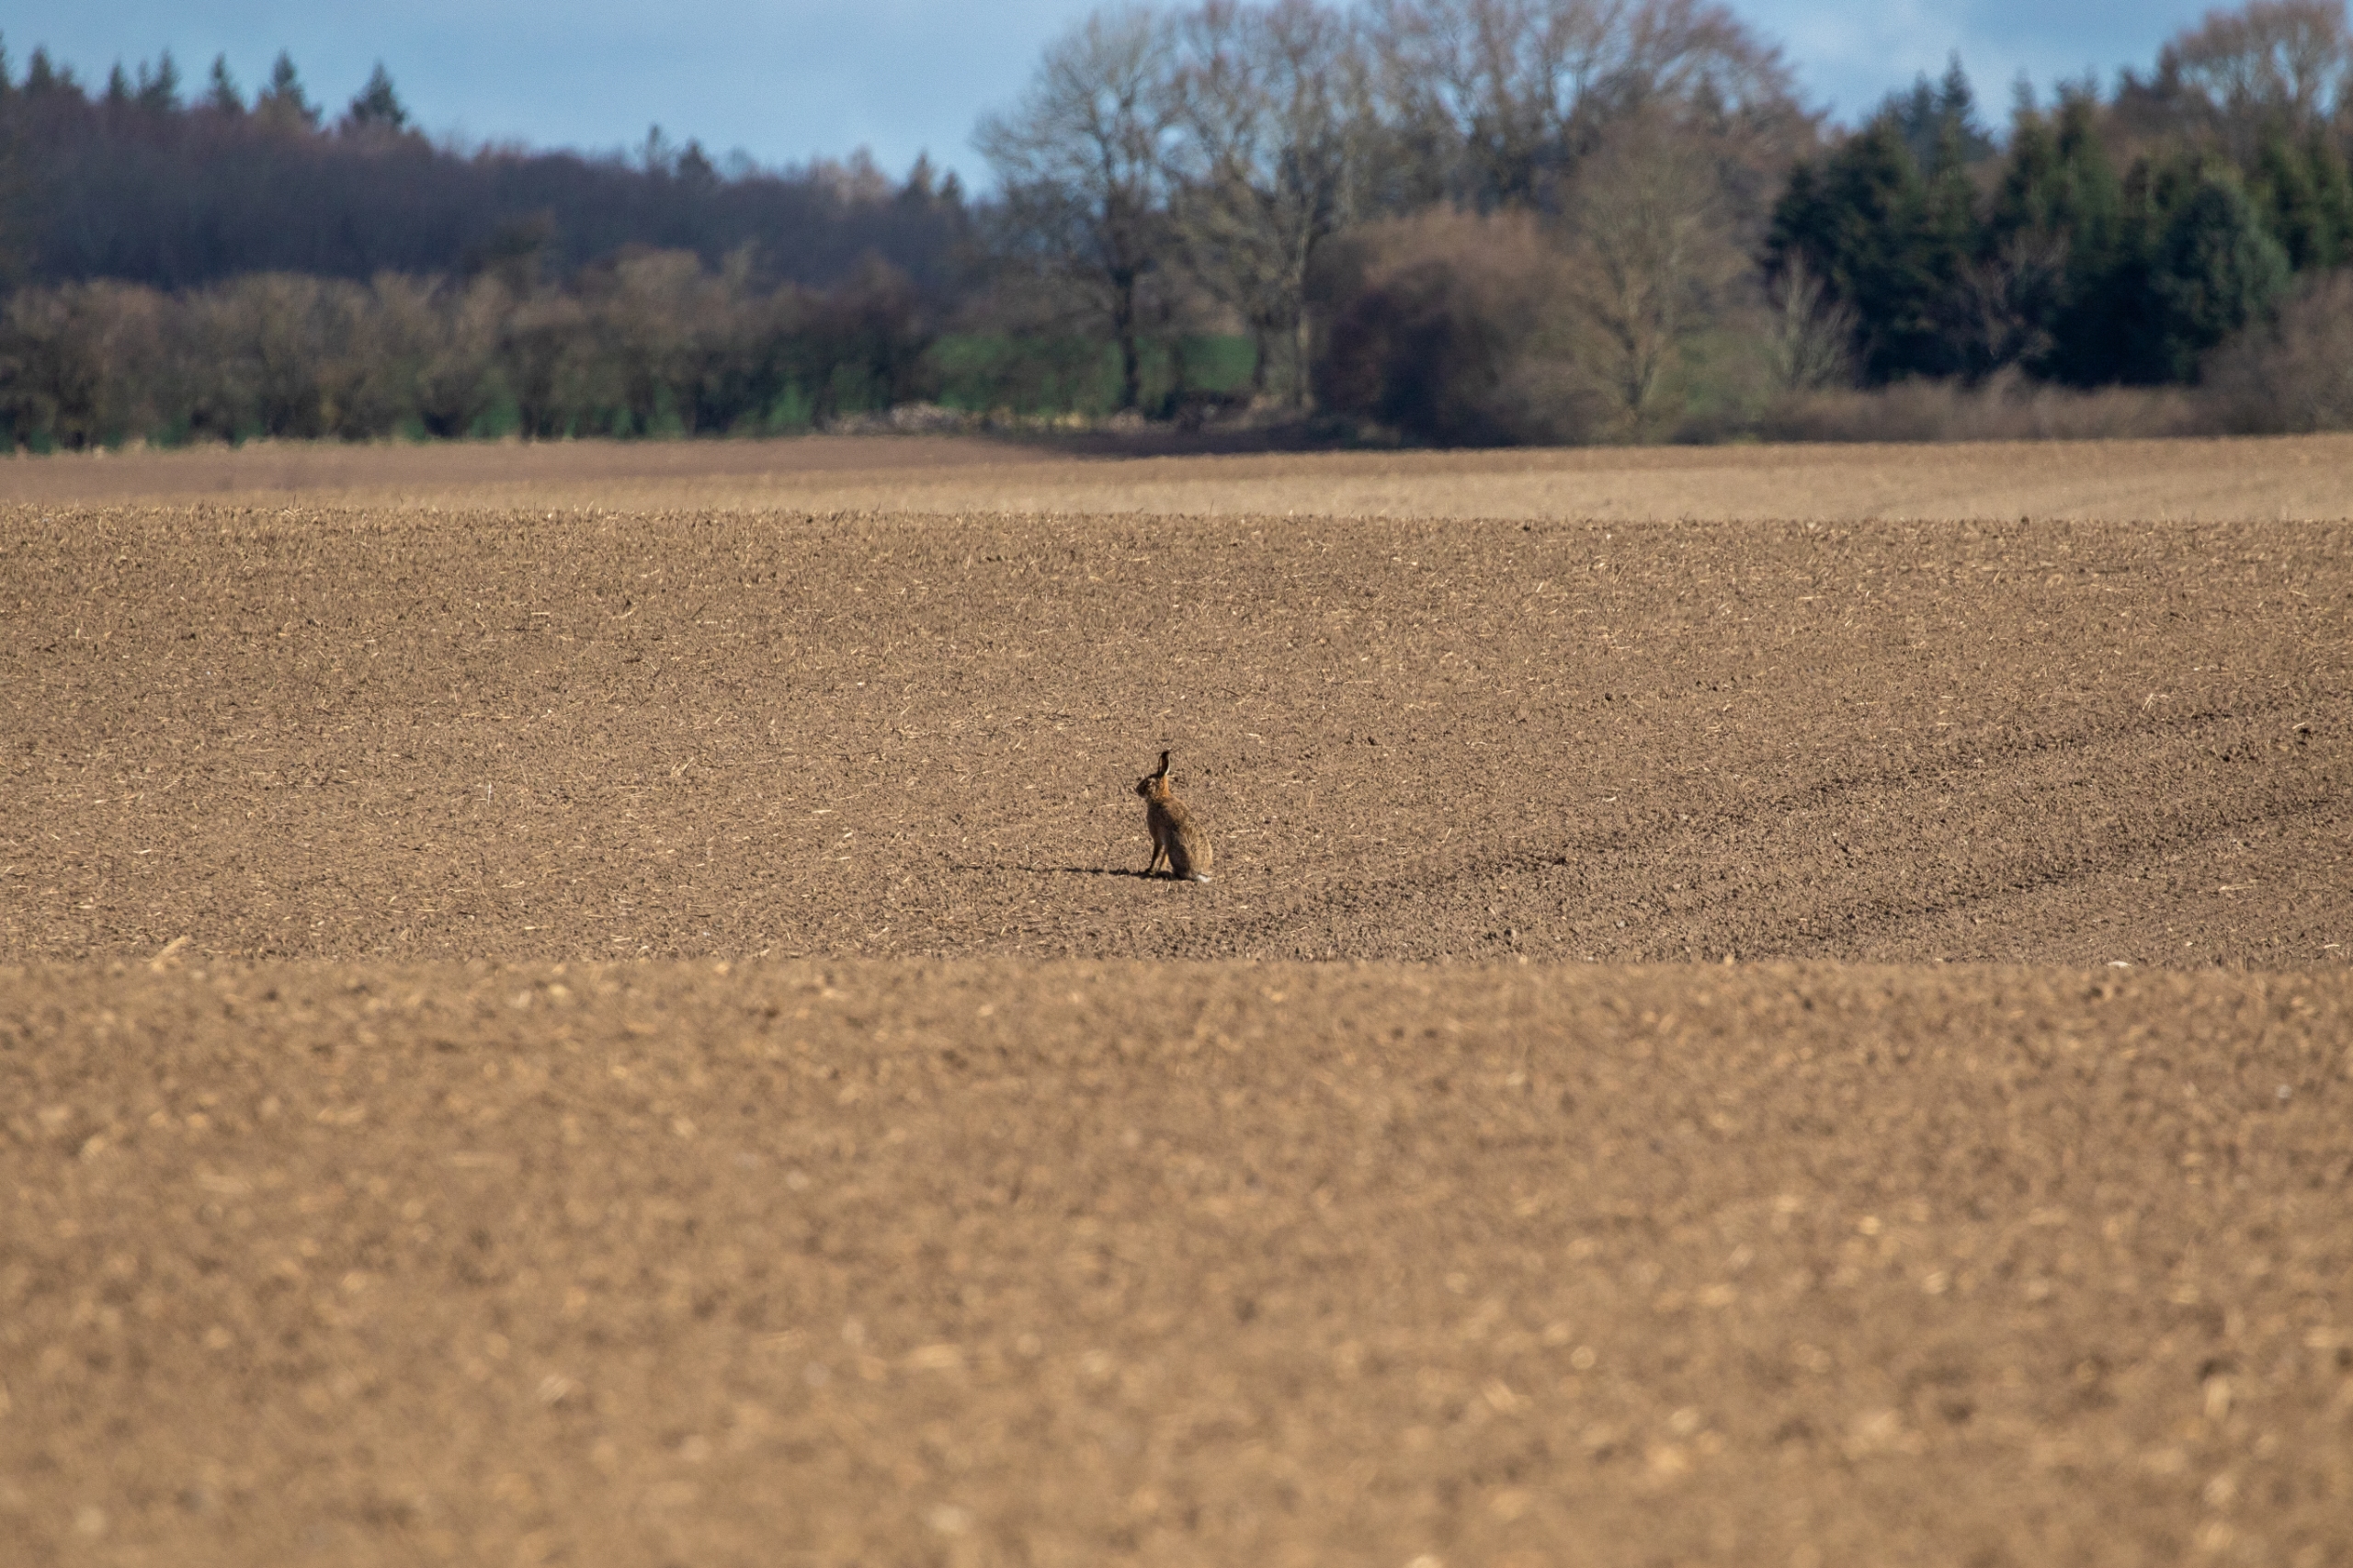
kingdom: Animalia
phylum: Chordata
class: Mammalia
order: Lagomorpha
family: Leporidae
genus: Lepus
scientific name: Lepus europaeus
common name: Hare
